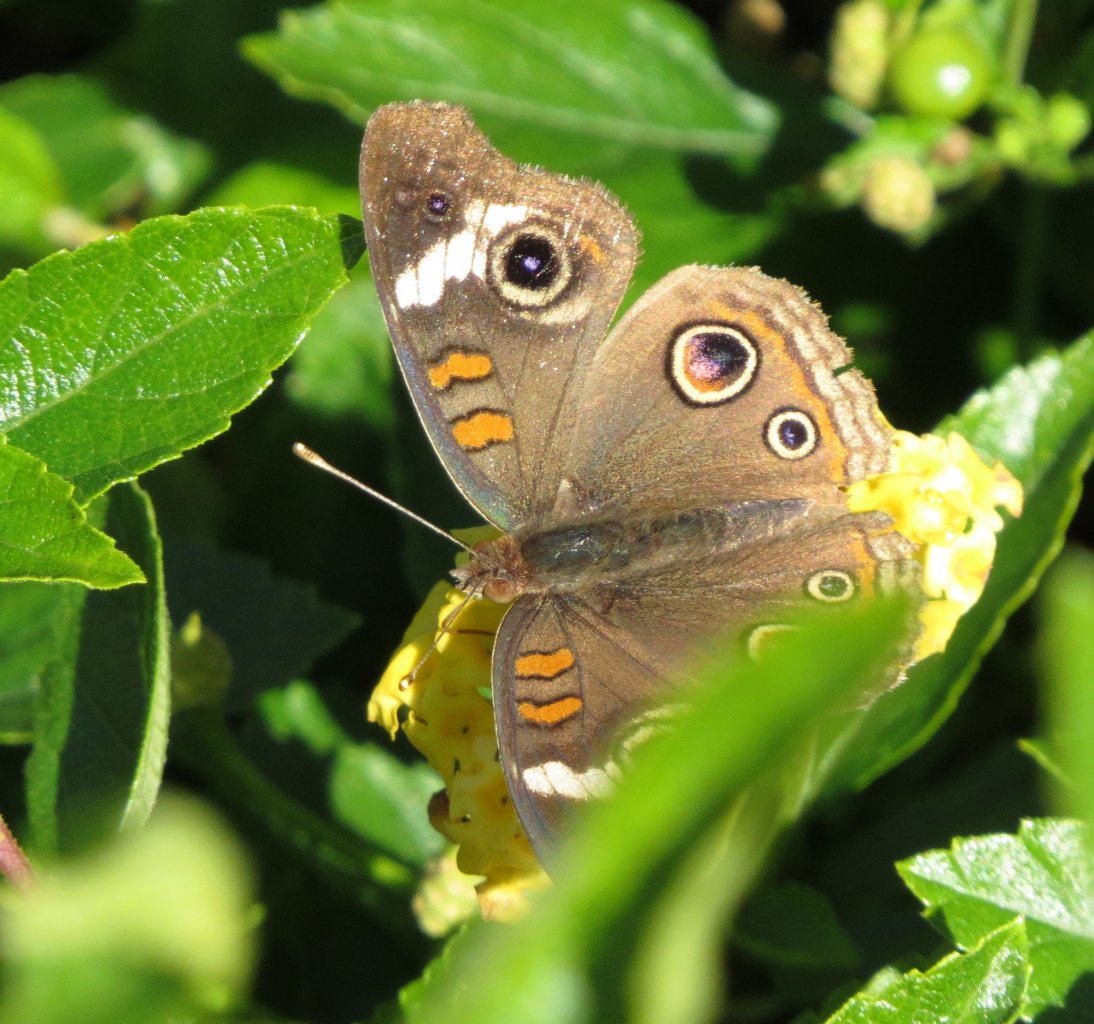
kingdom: Animalia
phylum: Arthropoda
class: Insecta
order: Lepidoptera
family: Nymphalidae
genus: Junonia
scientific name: Junonia coenia
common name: Common Buckeye
